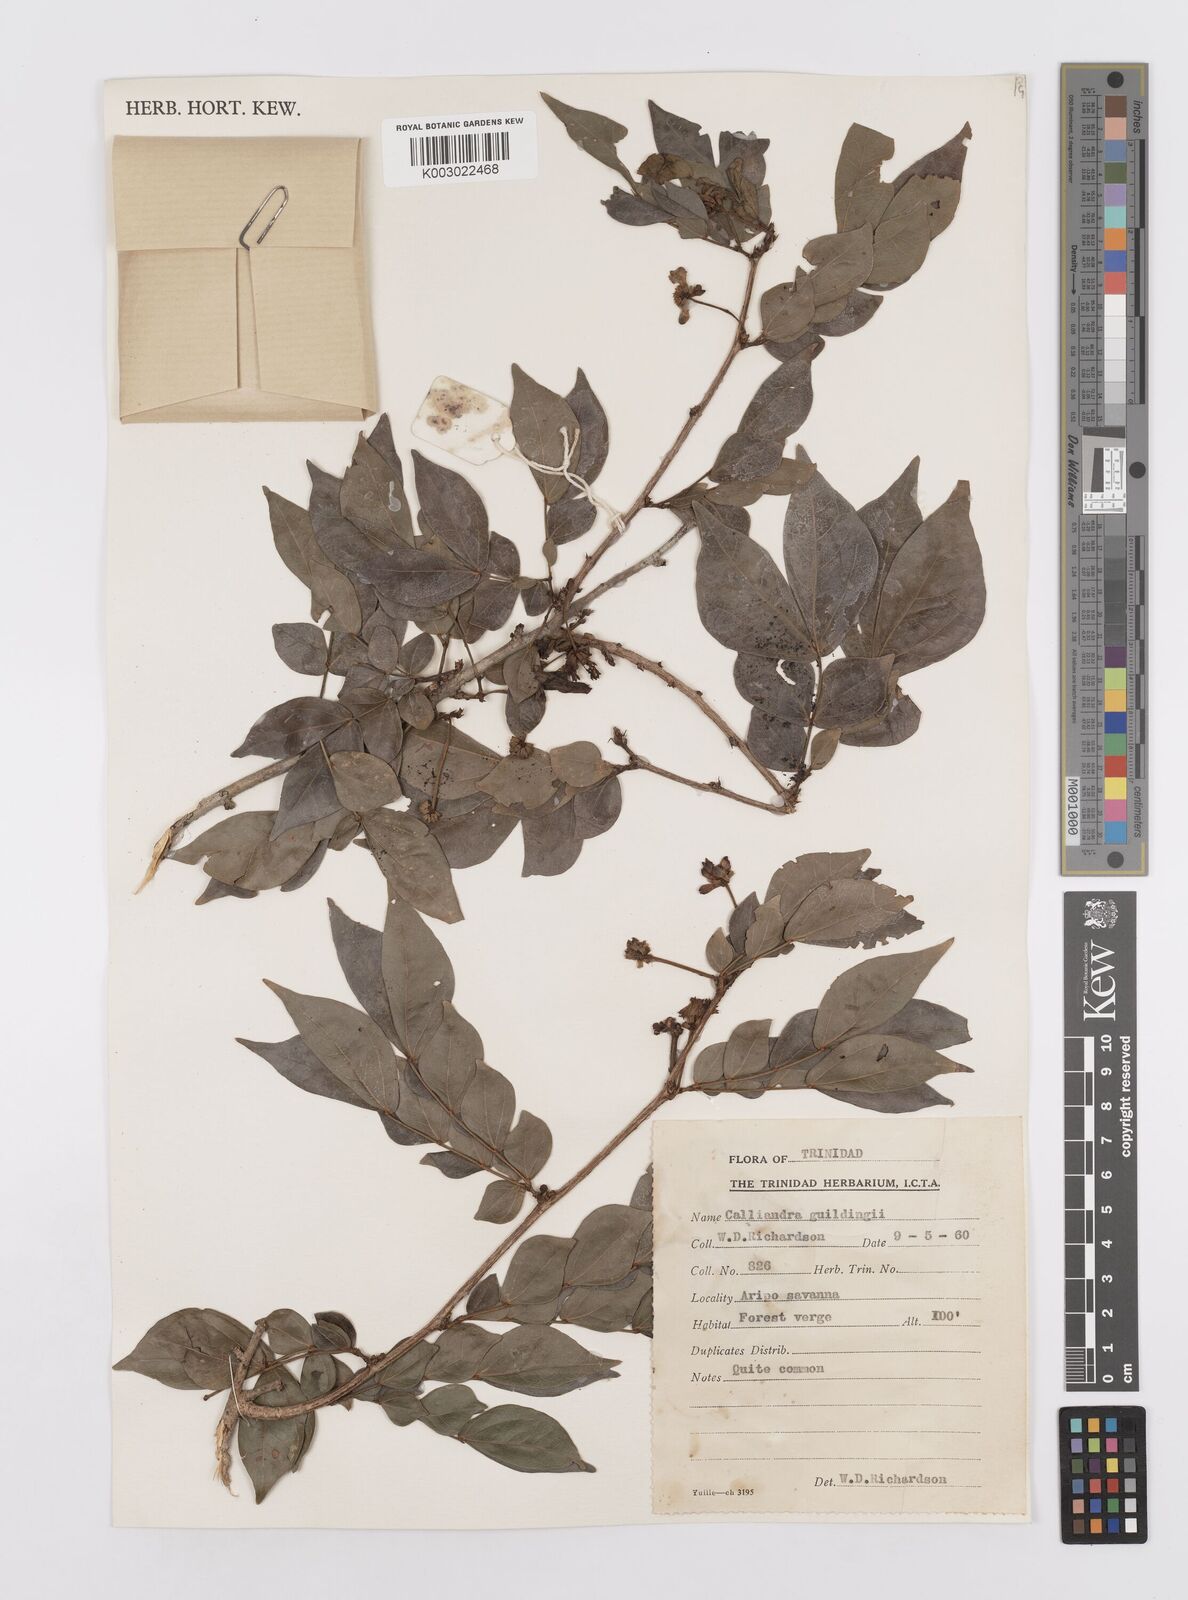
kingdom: Plantae
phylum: Tracheophyta
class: Magnoliopsida
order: Fabales
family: Fabaceae
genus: Calliandra
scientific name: Calliandra guildingii
